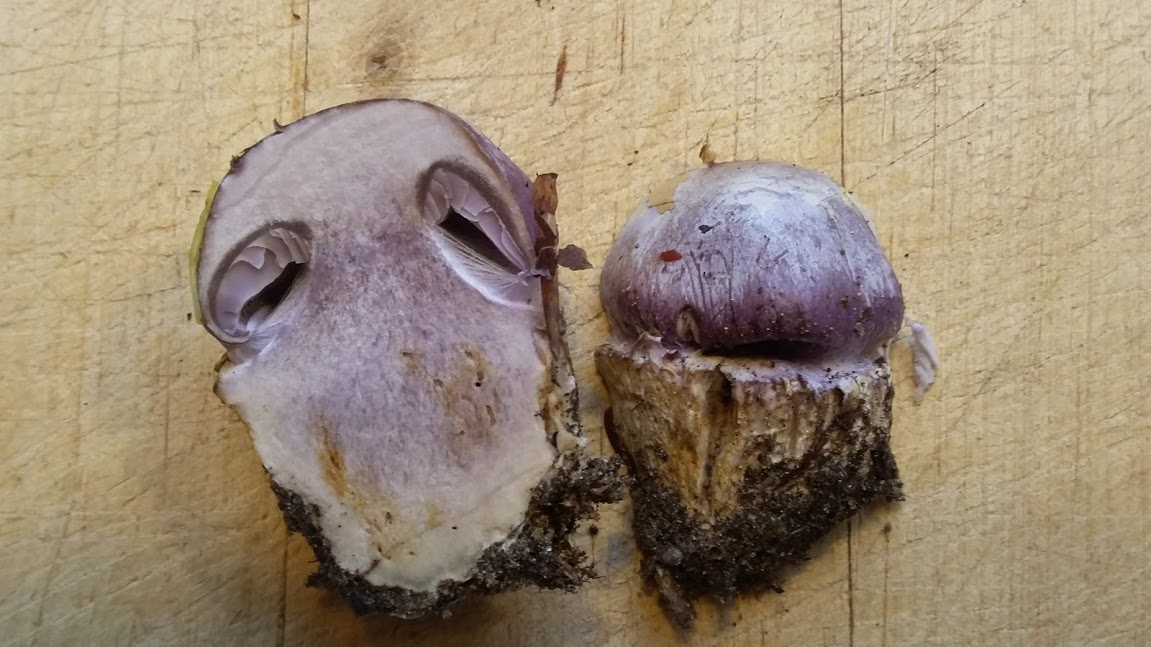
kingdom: Fungi
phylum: Basidiomycota
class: Agaricomycetes
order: Agaricales
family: Cortinariaceae
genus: Cortinarius
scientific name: Cortinarius caerulescens
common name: blåkødet slørhat
